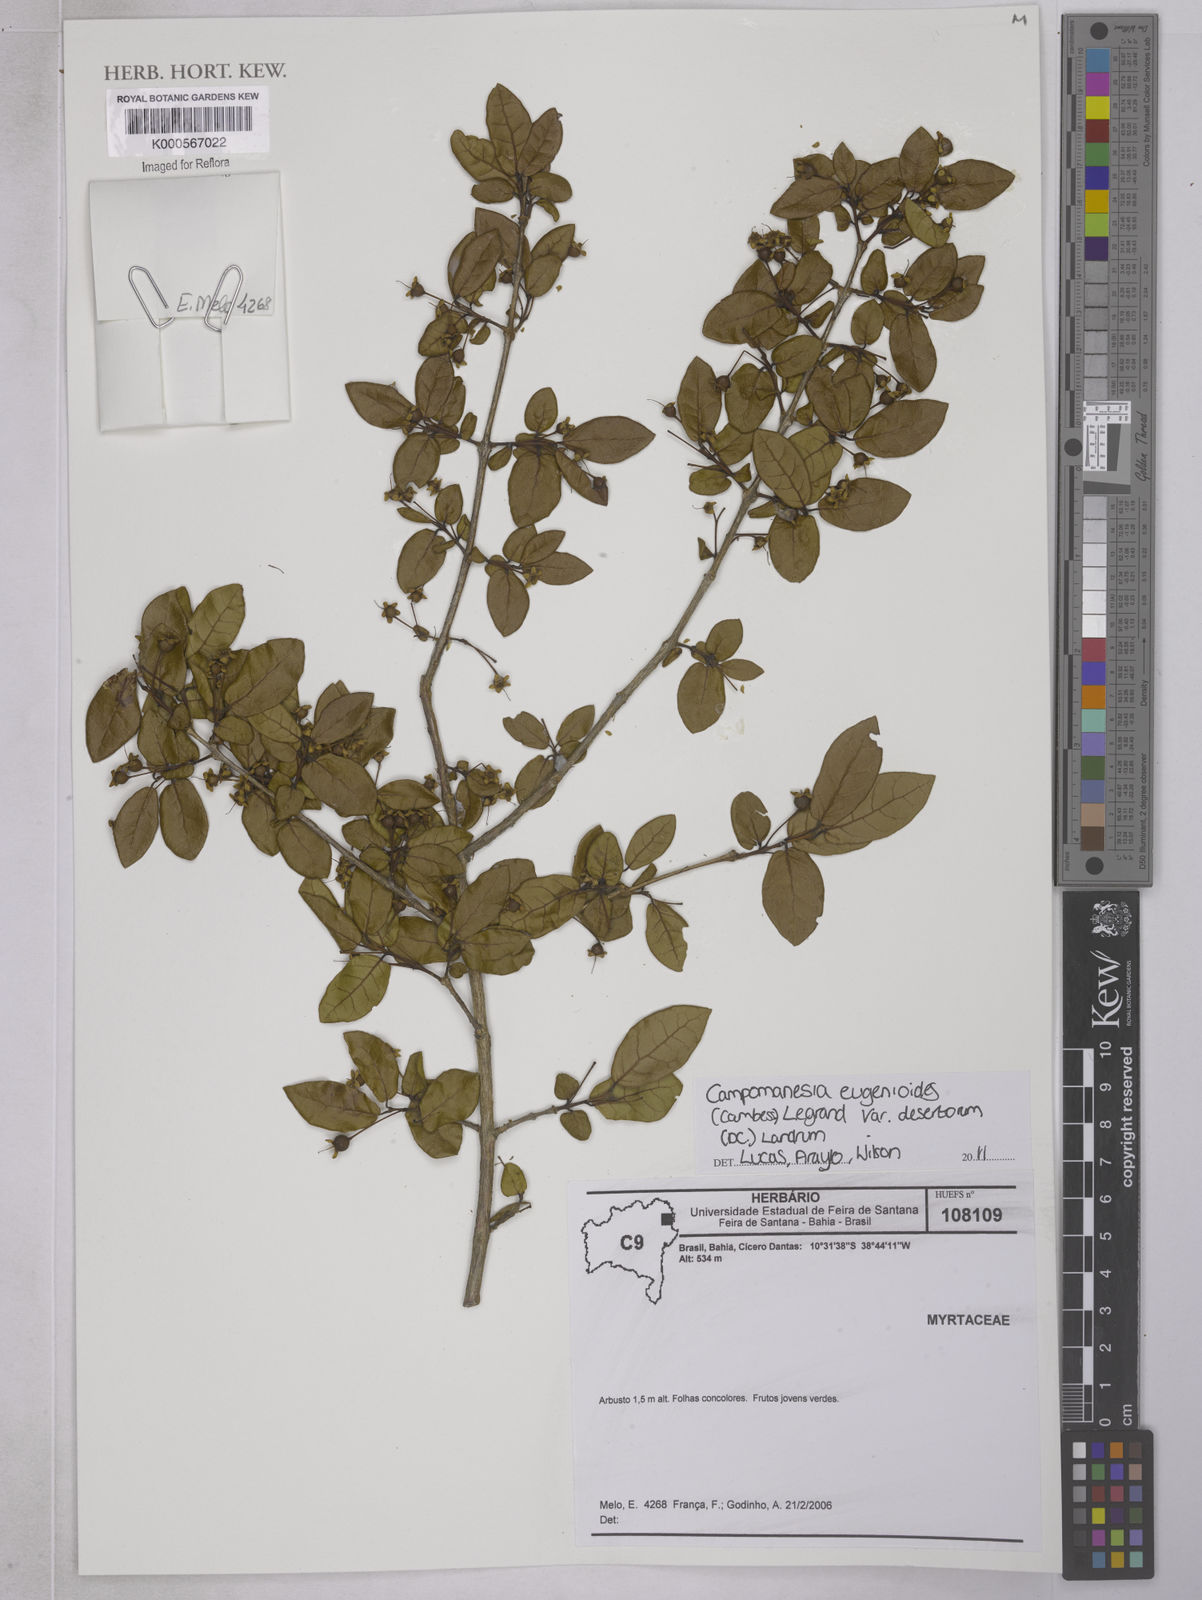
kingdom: Plantae
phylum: Tracheophyta
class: Magnoliopsida
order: Myrtales
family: Myrtaceae
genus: Campomanesia
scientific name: Campomanesia eugenioides
